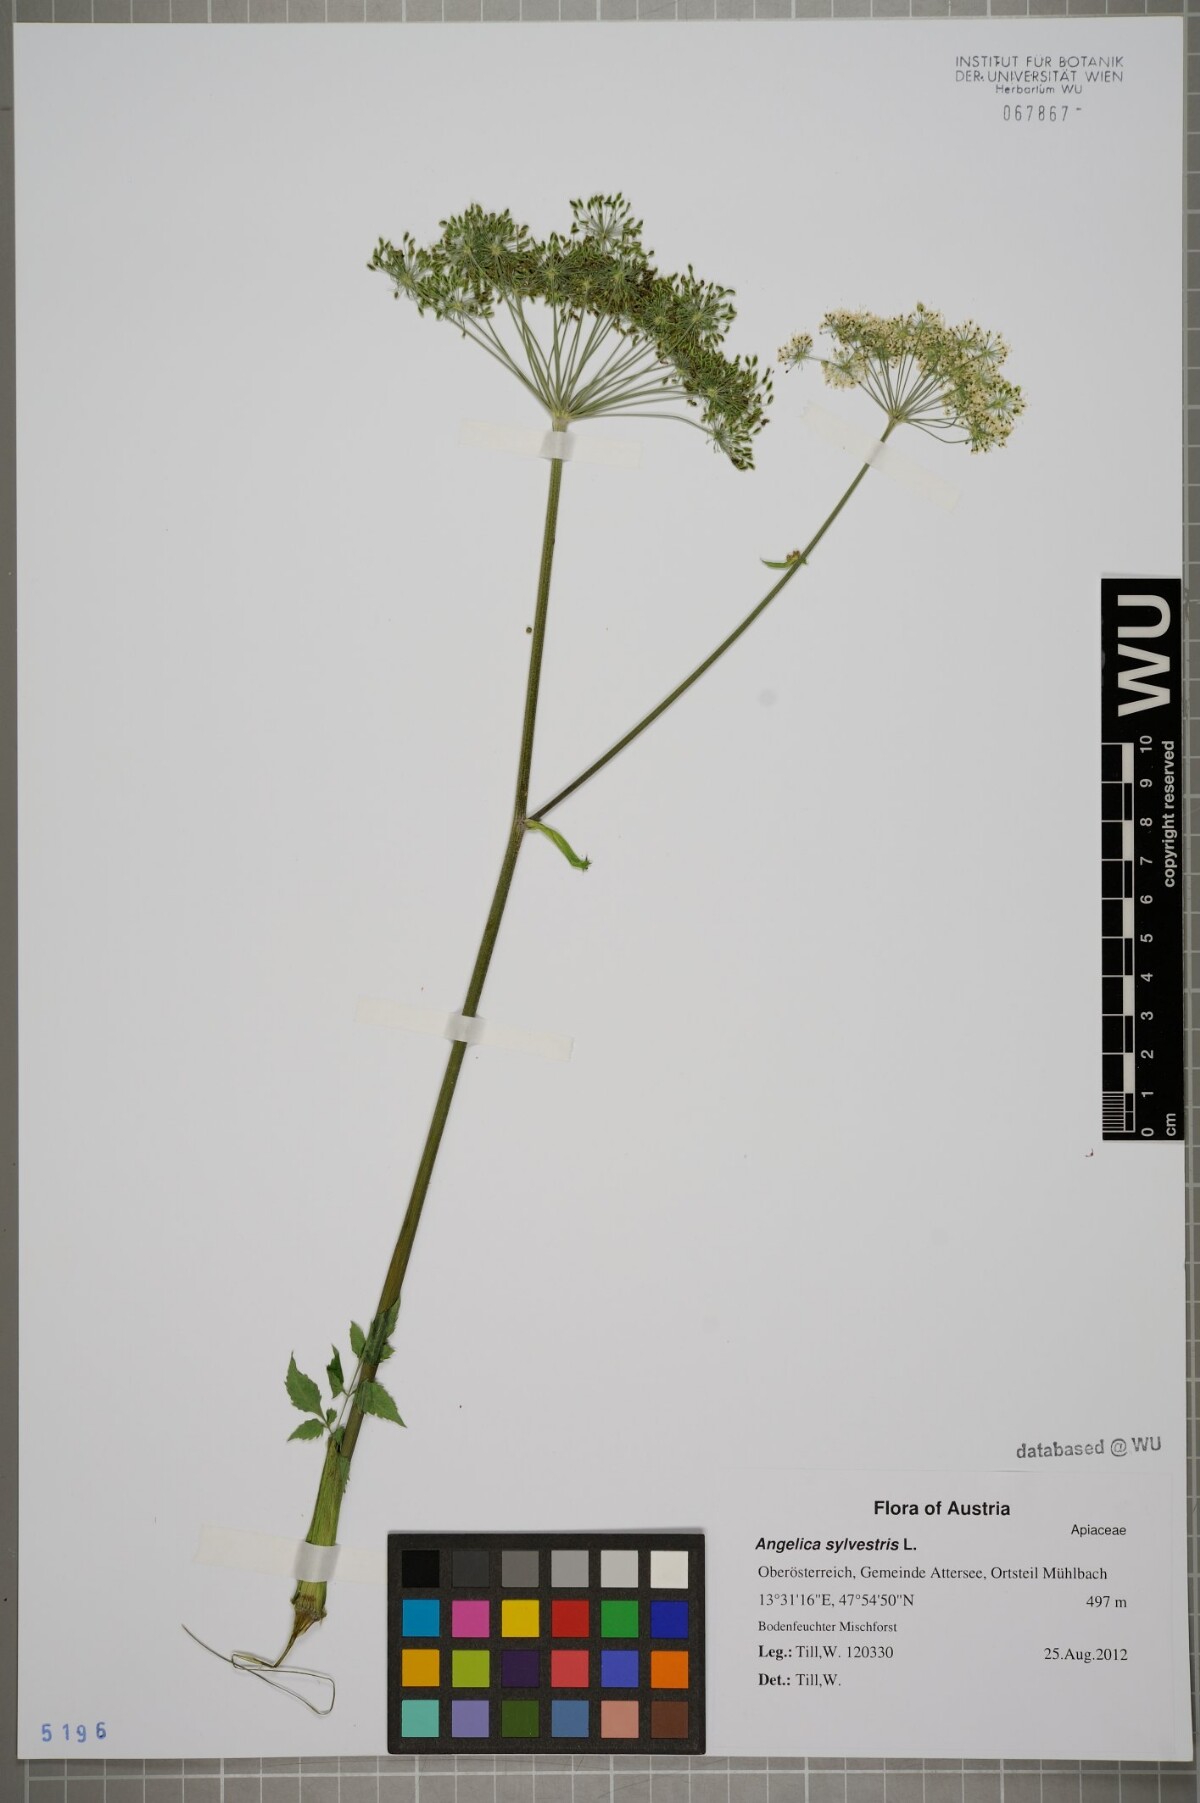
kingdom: Plantae
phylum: Tracheophyta
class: Magnoliopsida
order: Apiales
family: Apiaceae
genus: Angelica
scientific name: Angelica sylvestris
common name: Wild angelica
